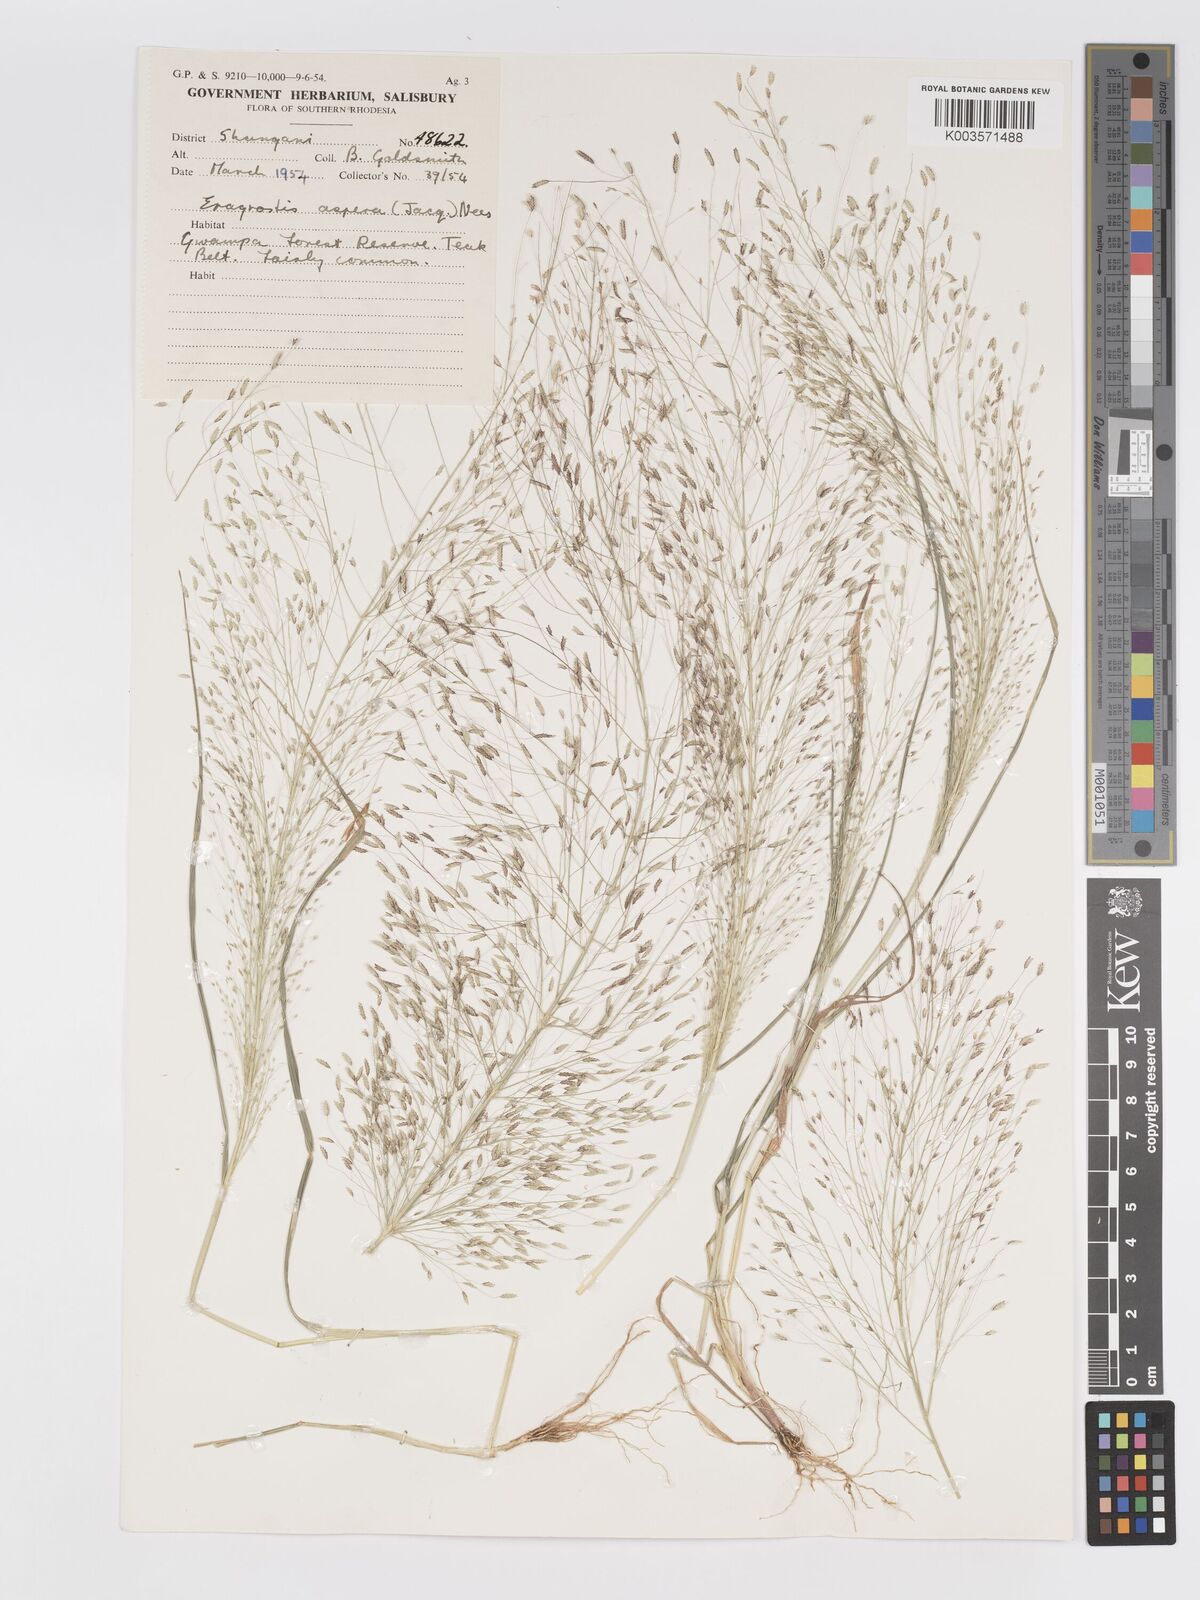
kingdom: Plantae
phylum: Tracheophyta
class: Liliopsida
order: Poales
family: Poaceae
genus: Eragrostis
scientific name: Eragrostis aspera
